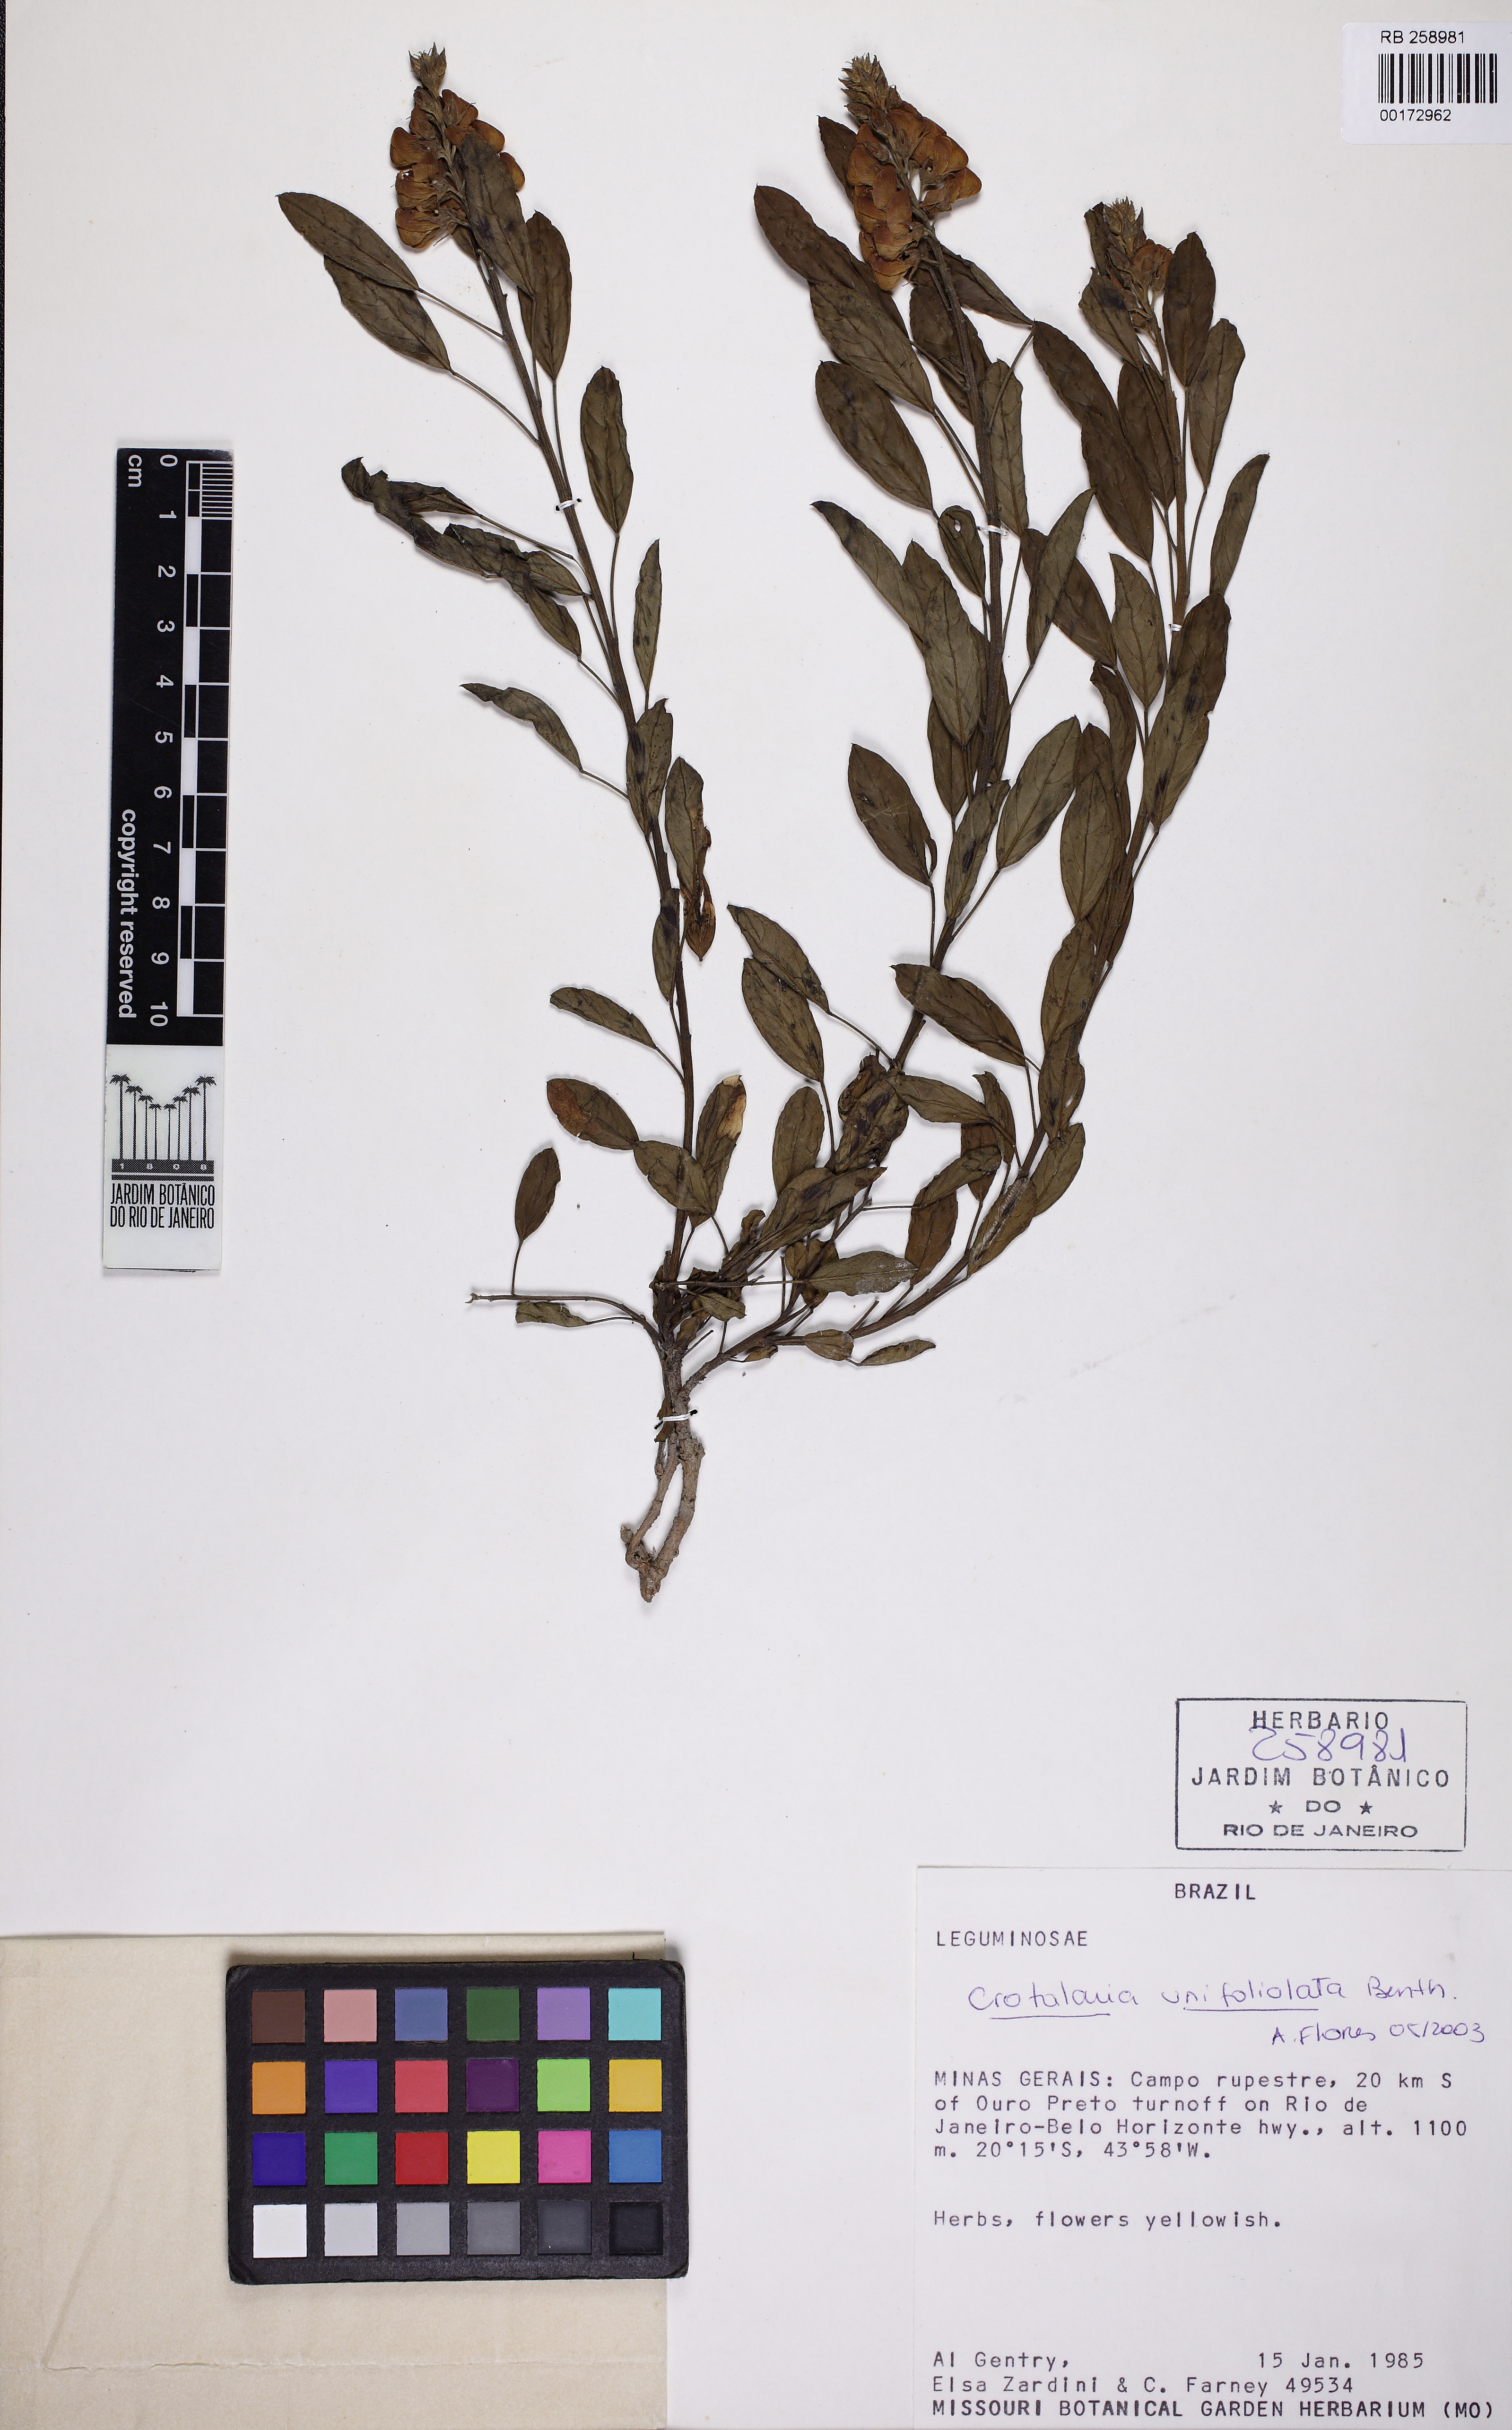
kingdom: Plantae
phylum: Tracheophyta
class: Magnoliopsida
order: Fabales
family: Fabaceae
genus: Crotalaria
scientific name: Crotalaria unifoliolata
